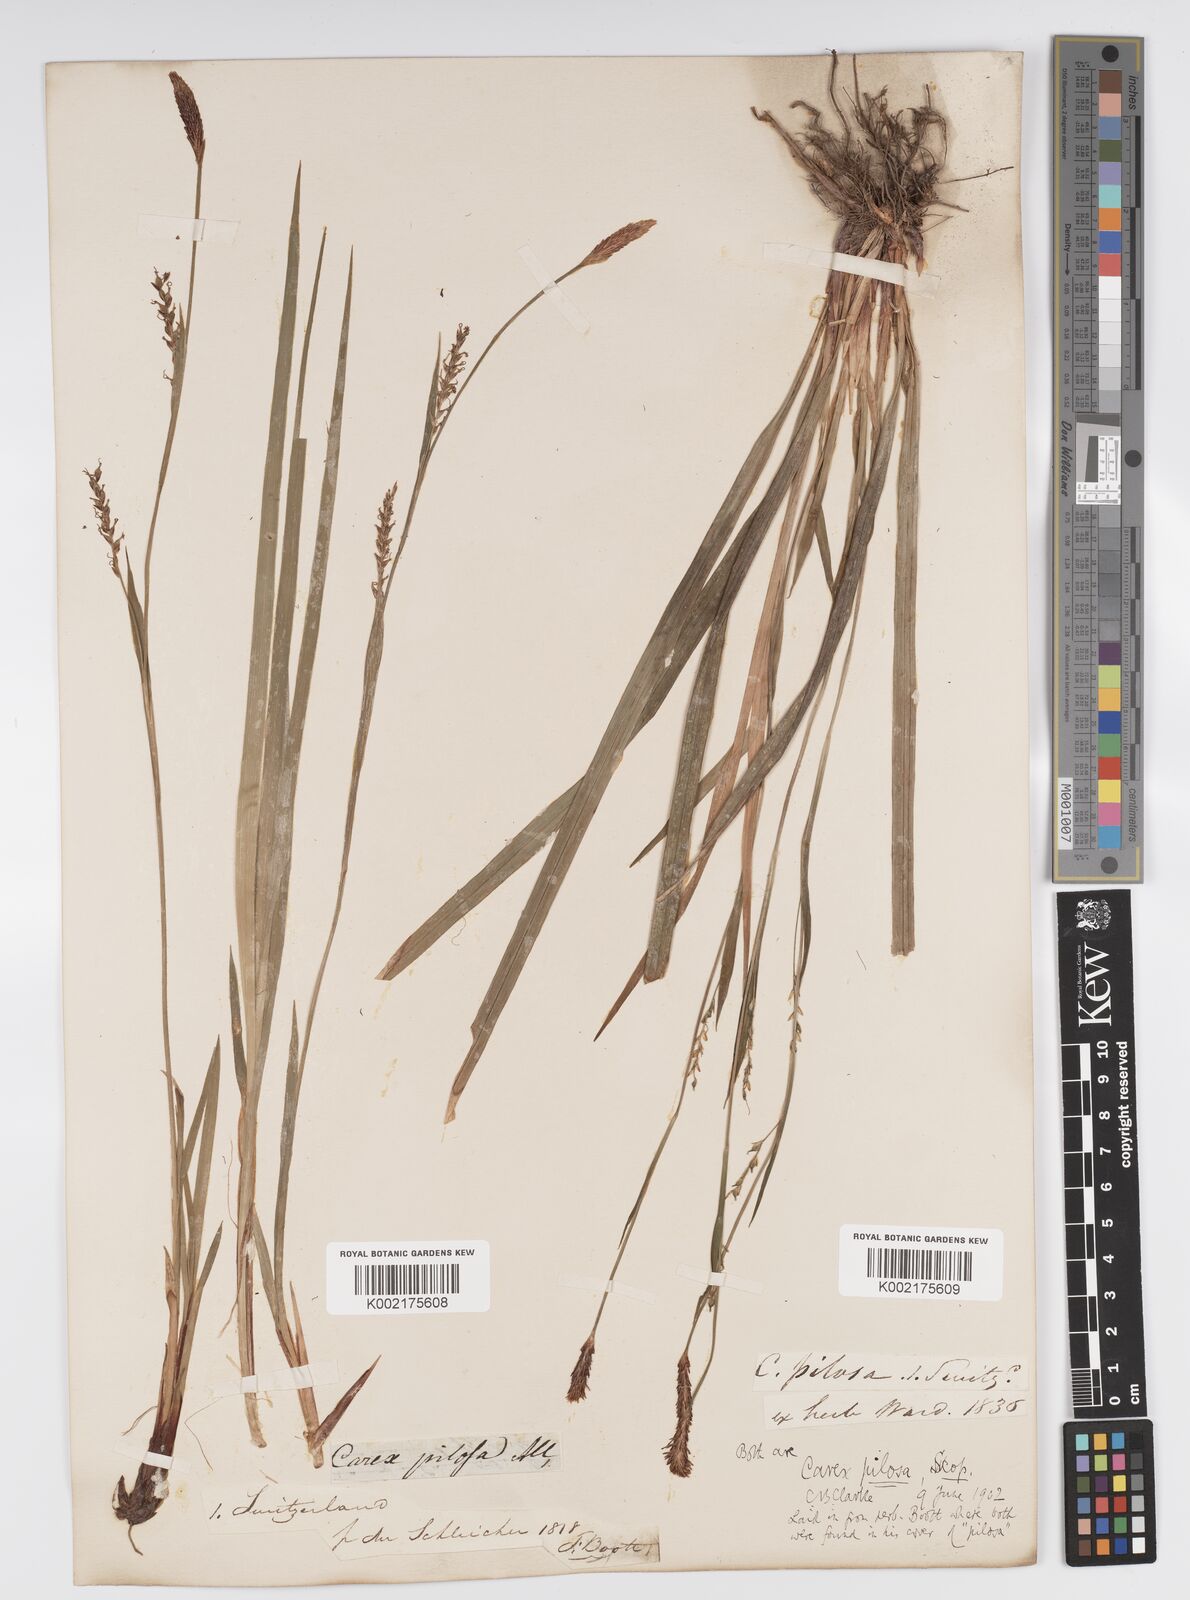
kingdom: Plantae
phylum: Tracheophyta
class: Liliopsida
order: Poales
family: Cyperaceae
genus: Carex
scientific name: Carex pilosa
